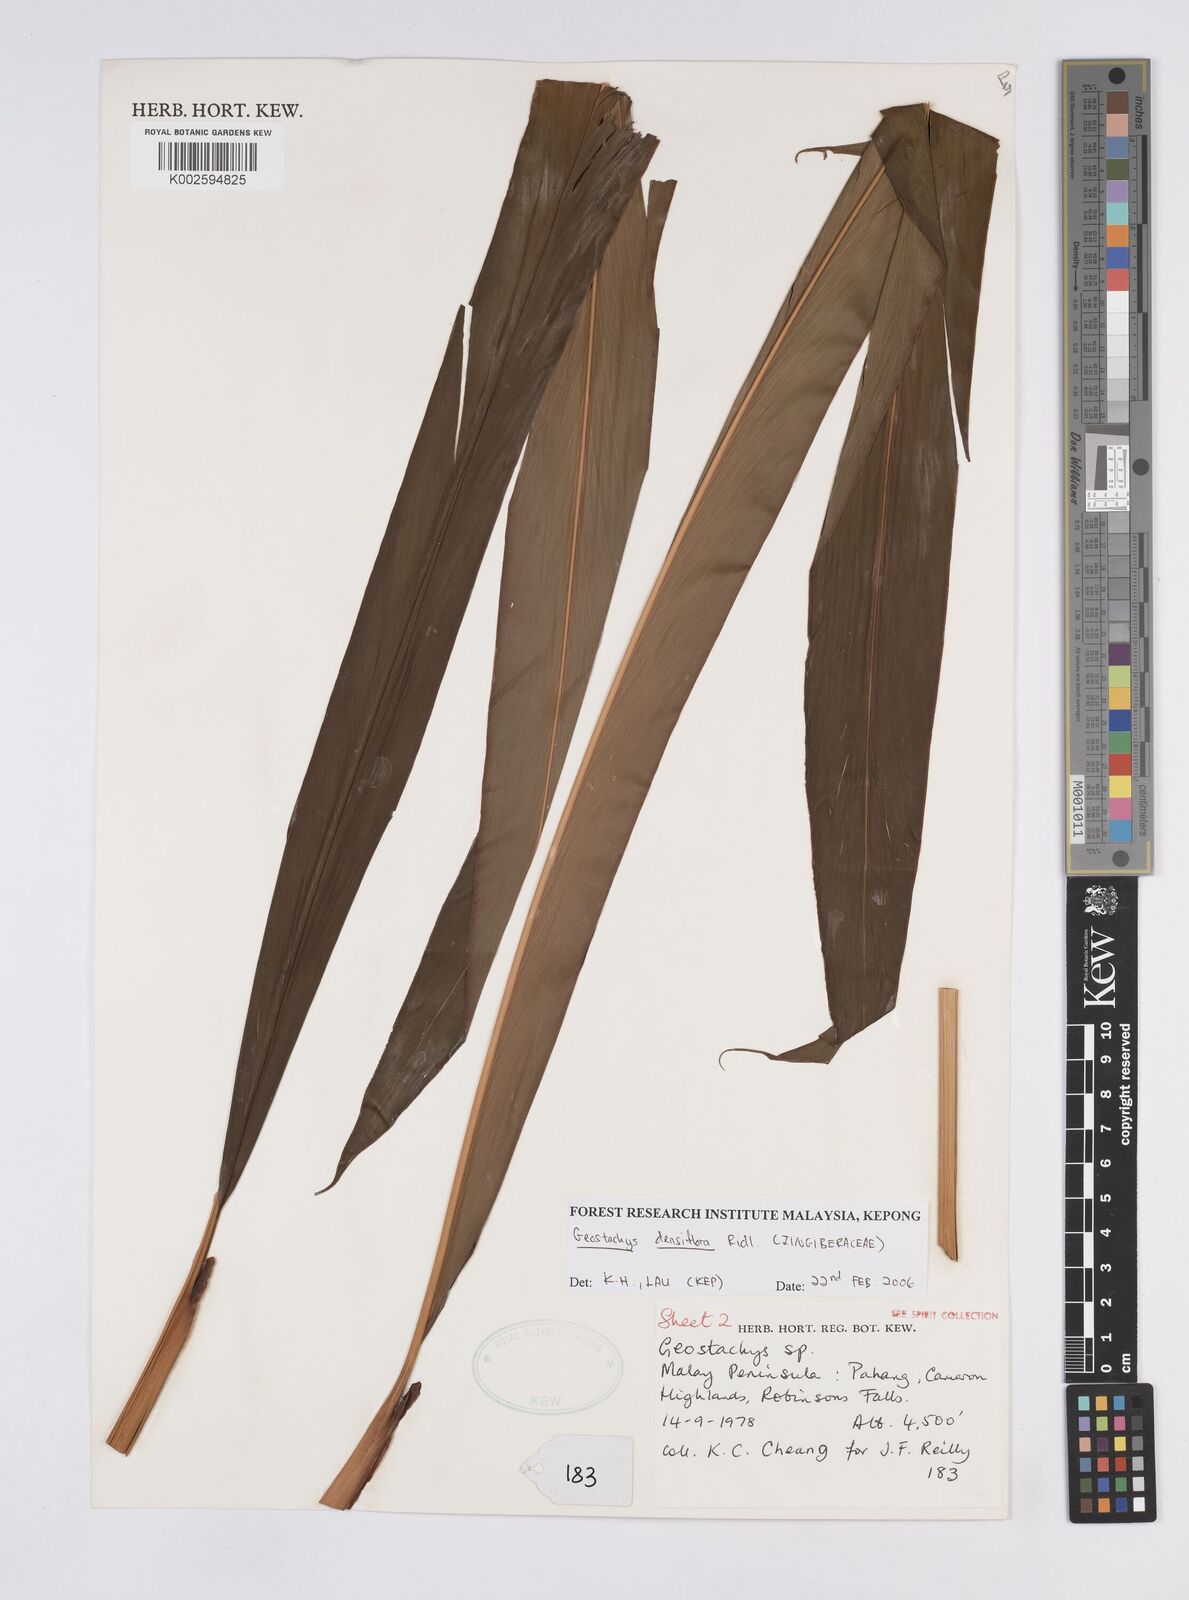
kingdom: Plantae
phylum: Tracheophyta
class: Liliopsida
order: Zingiberales
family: Zingiberaceae
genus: Geostachys
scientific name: Geostachys densiflora
